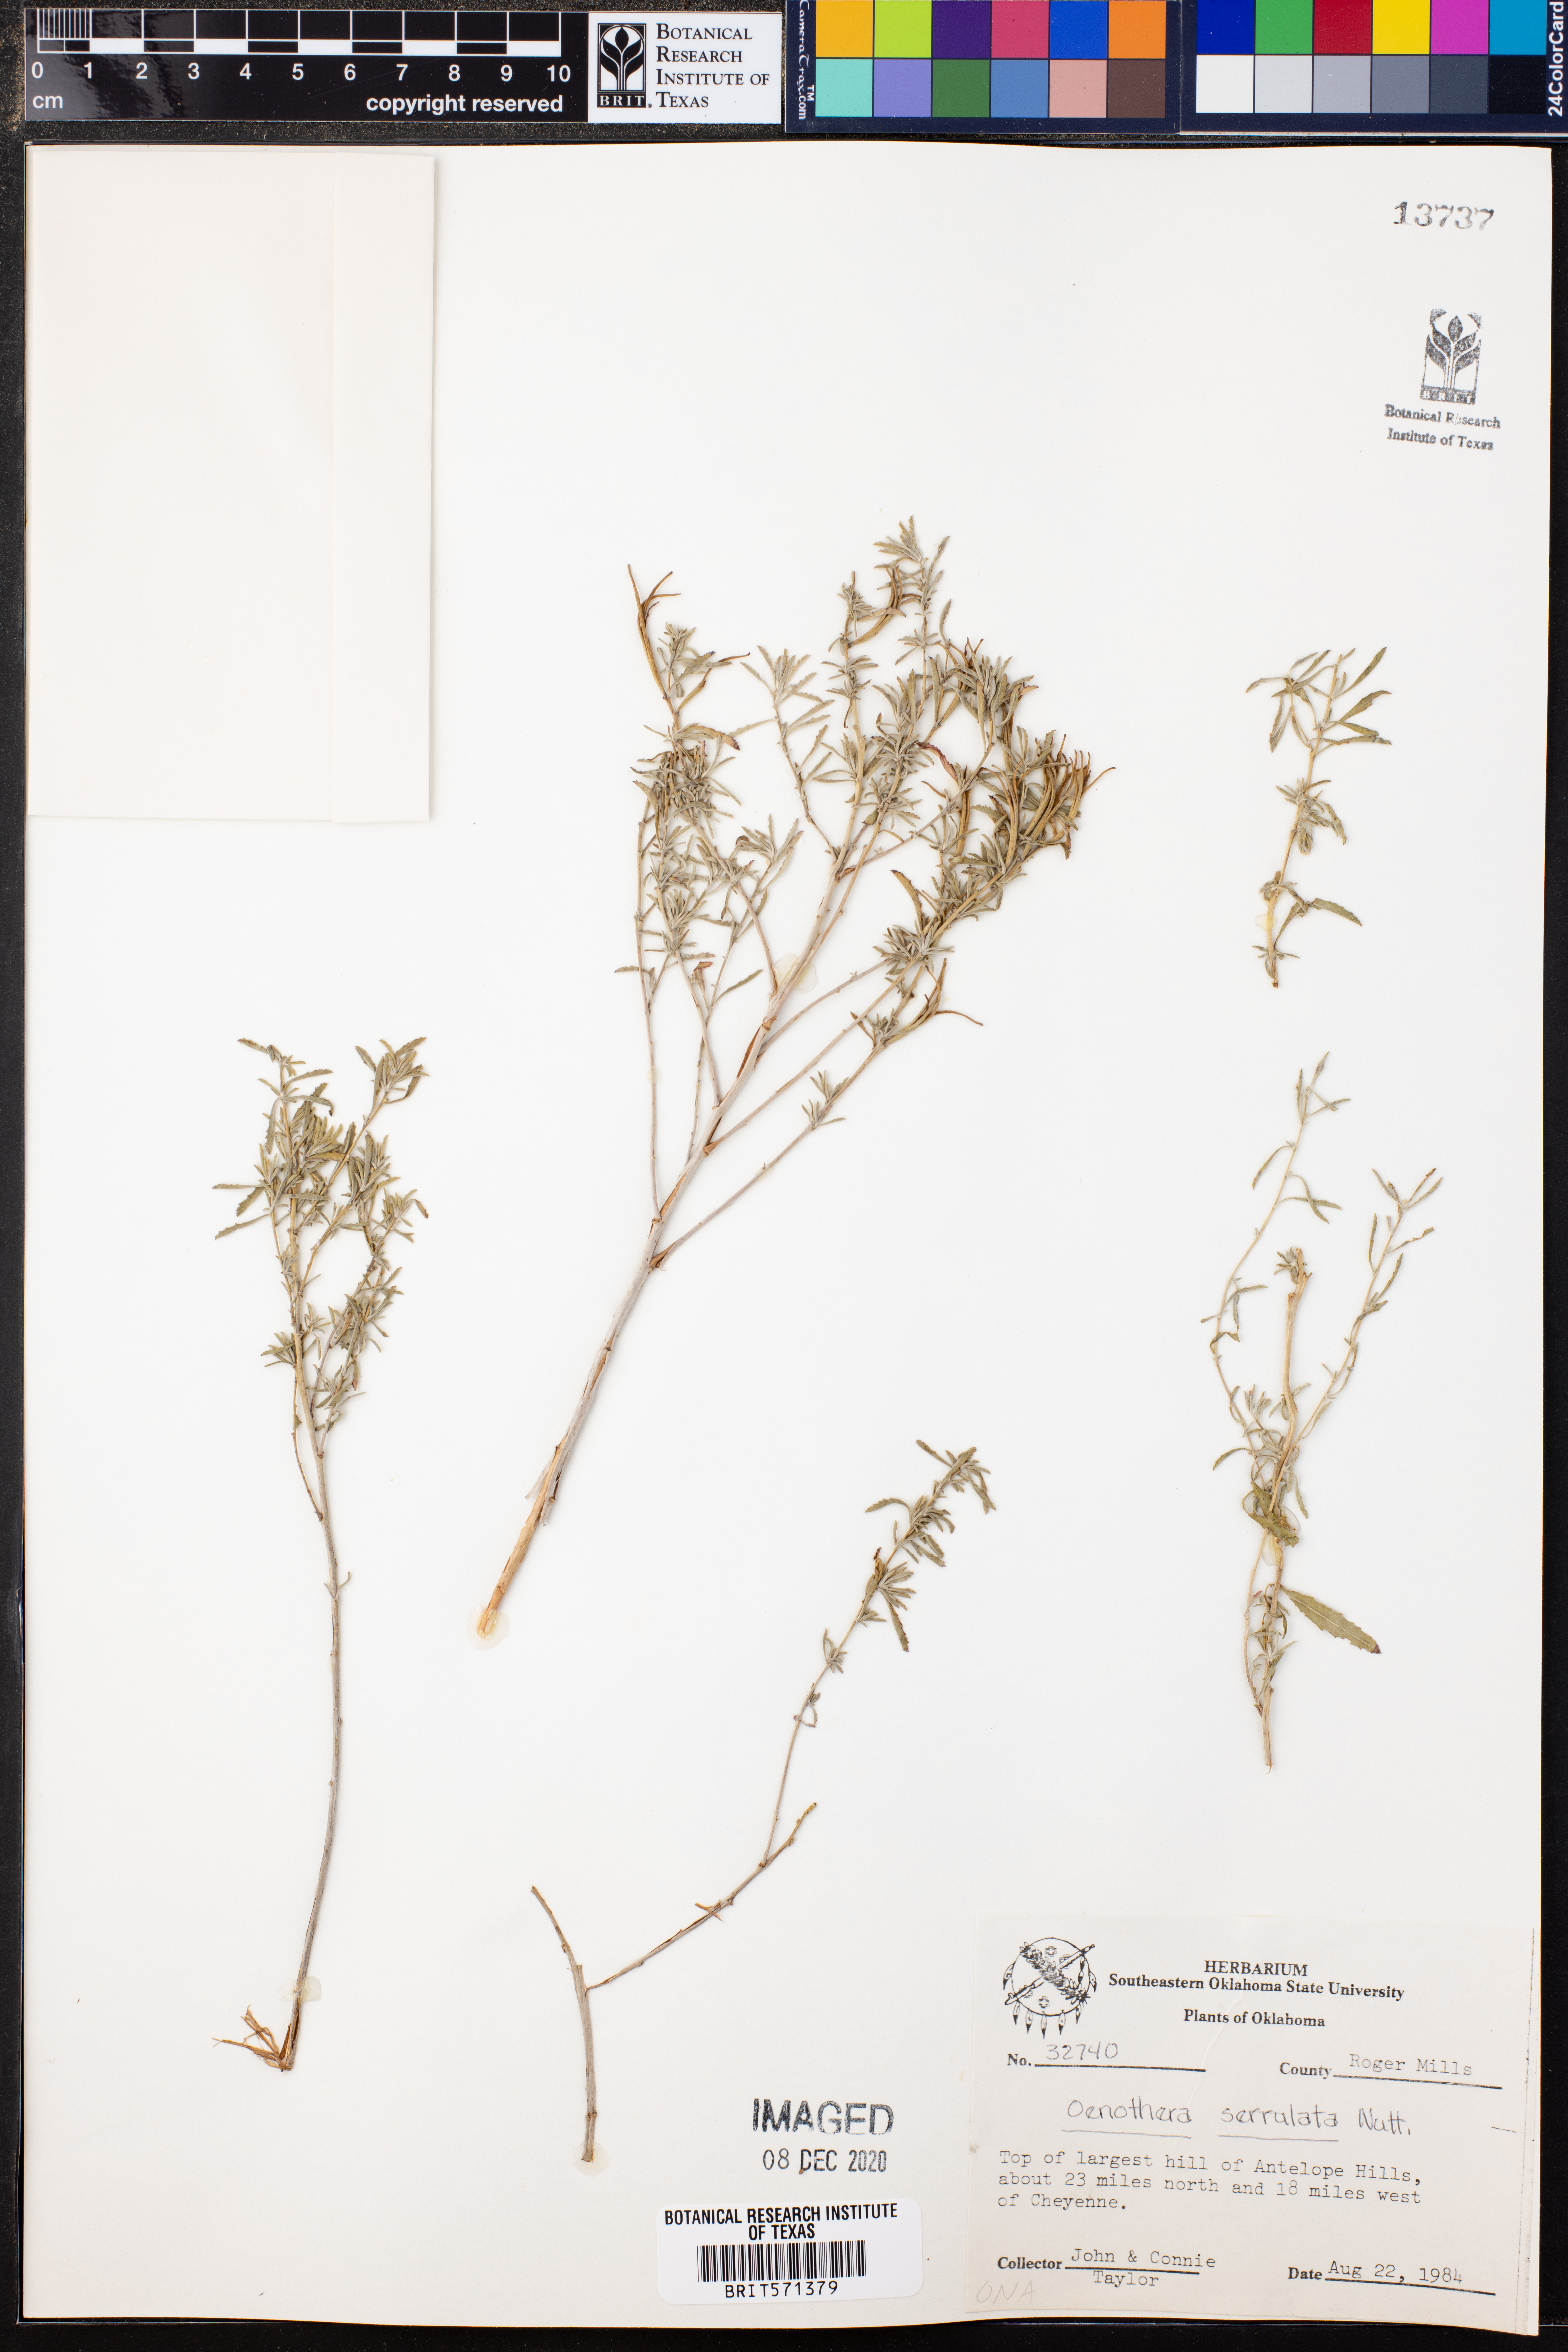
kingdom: Plantae
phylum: Tracheophyta
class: Magnoliopsida
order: Myrtales
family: Onagraceae
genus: Oenothera
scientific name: Oenothera serrulata
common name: Half-shrub calylophus
